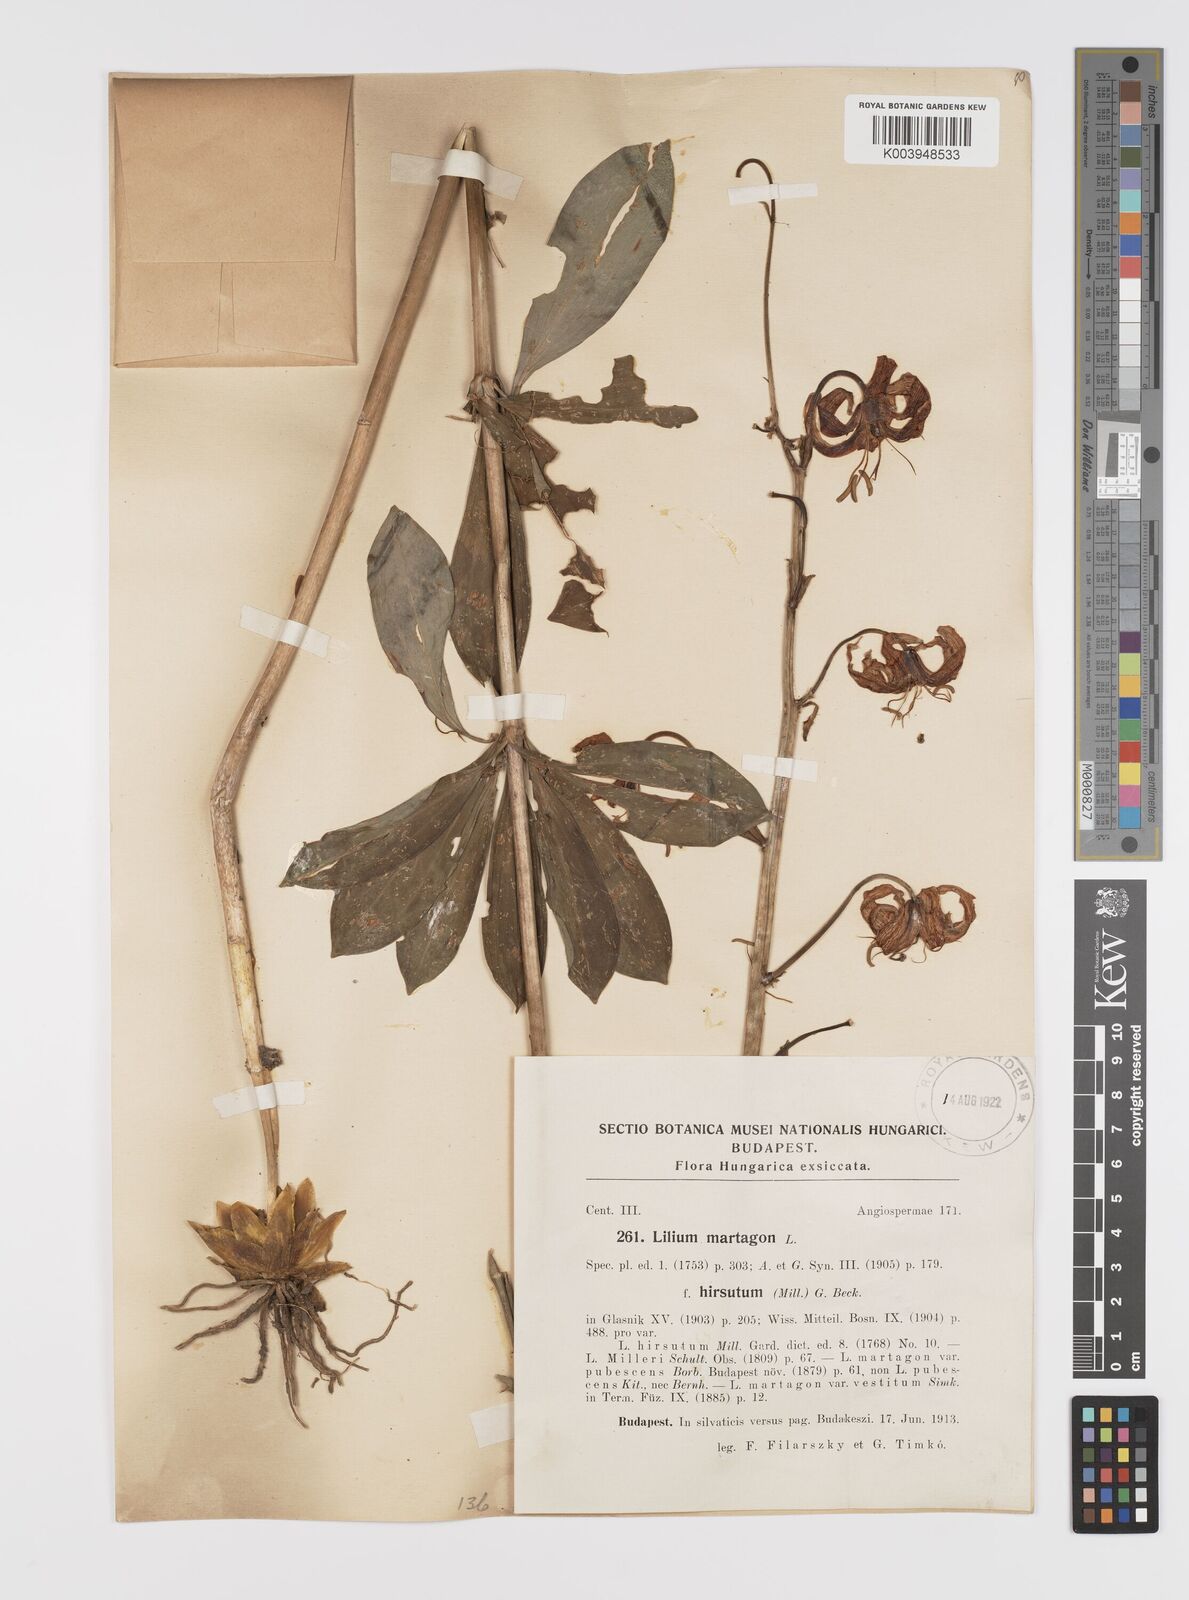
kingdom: Plantae
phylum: Tracheophyta
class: Liliopsida
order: Liliales
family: Liliaceae
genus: Lilium
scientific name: Lilium martagon
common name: Martagon lily
